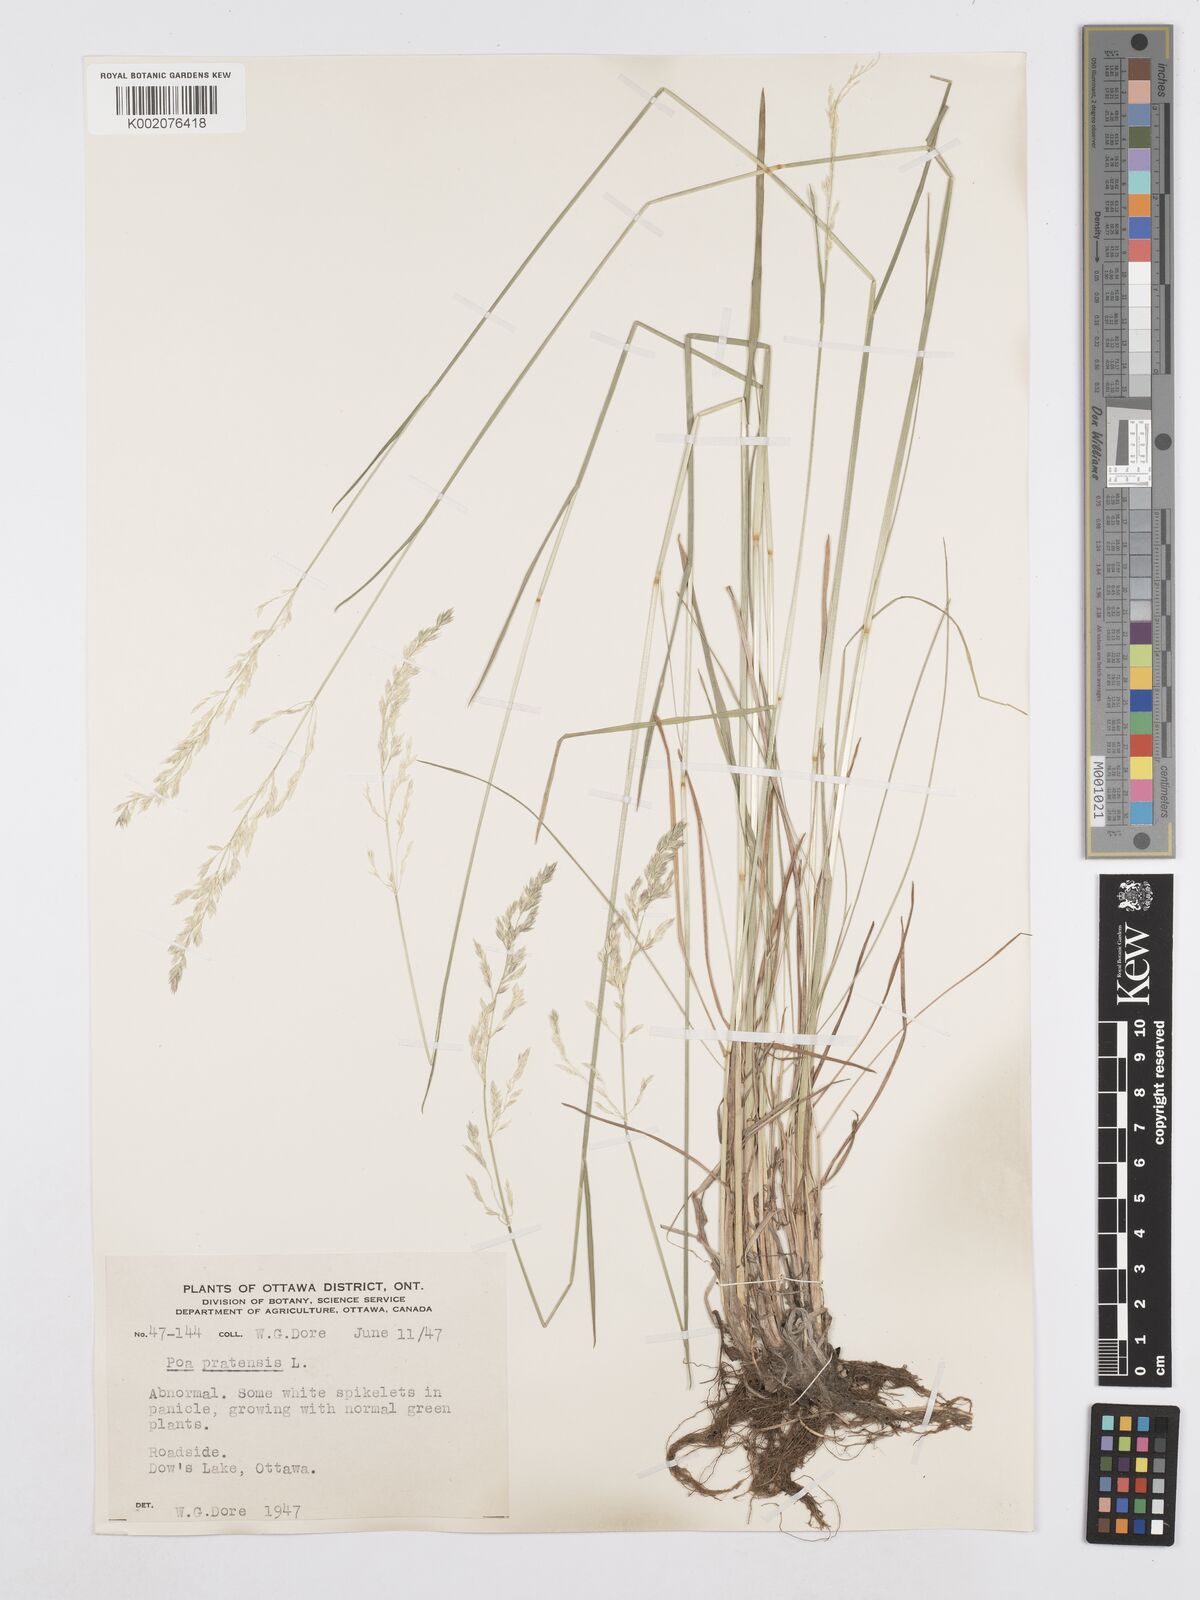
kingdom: Plantae
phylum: Tracheophyta
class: Liliopsida
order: Poales
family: Poaceae
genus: Poa
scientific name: Poa angustifolia
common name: Narrow-leaved meadow-grass
